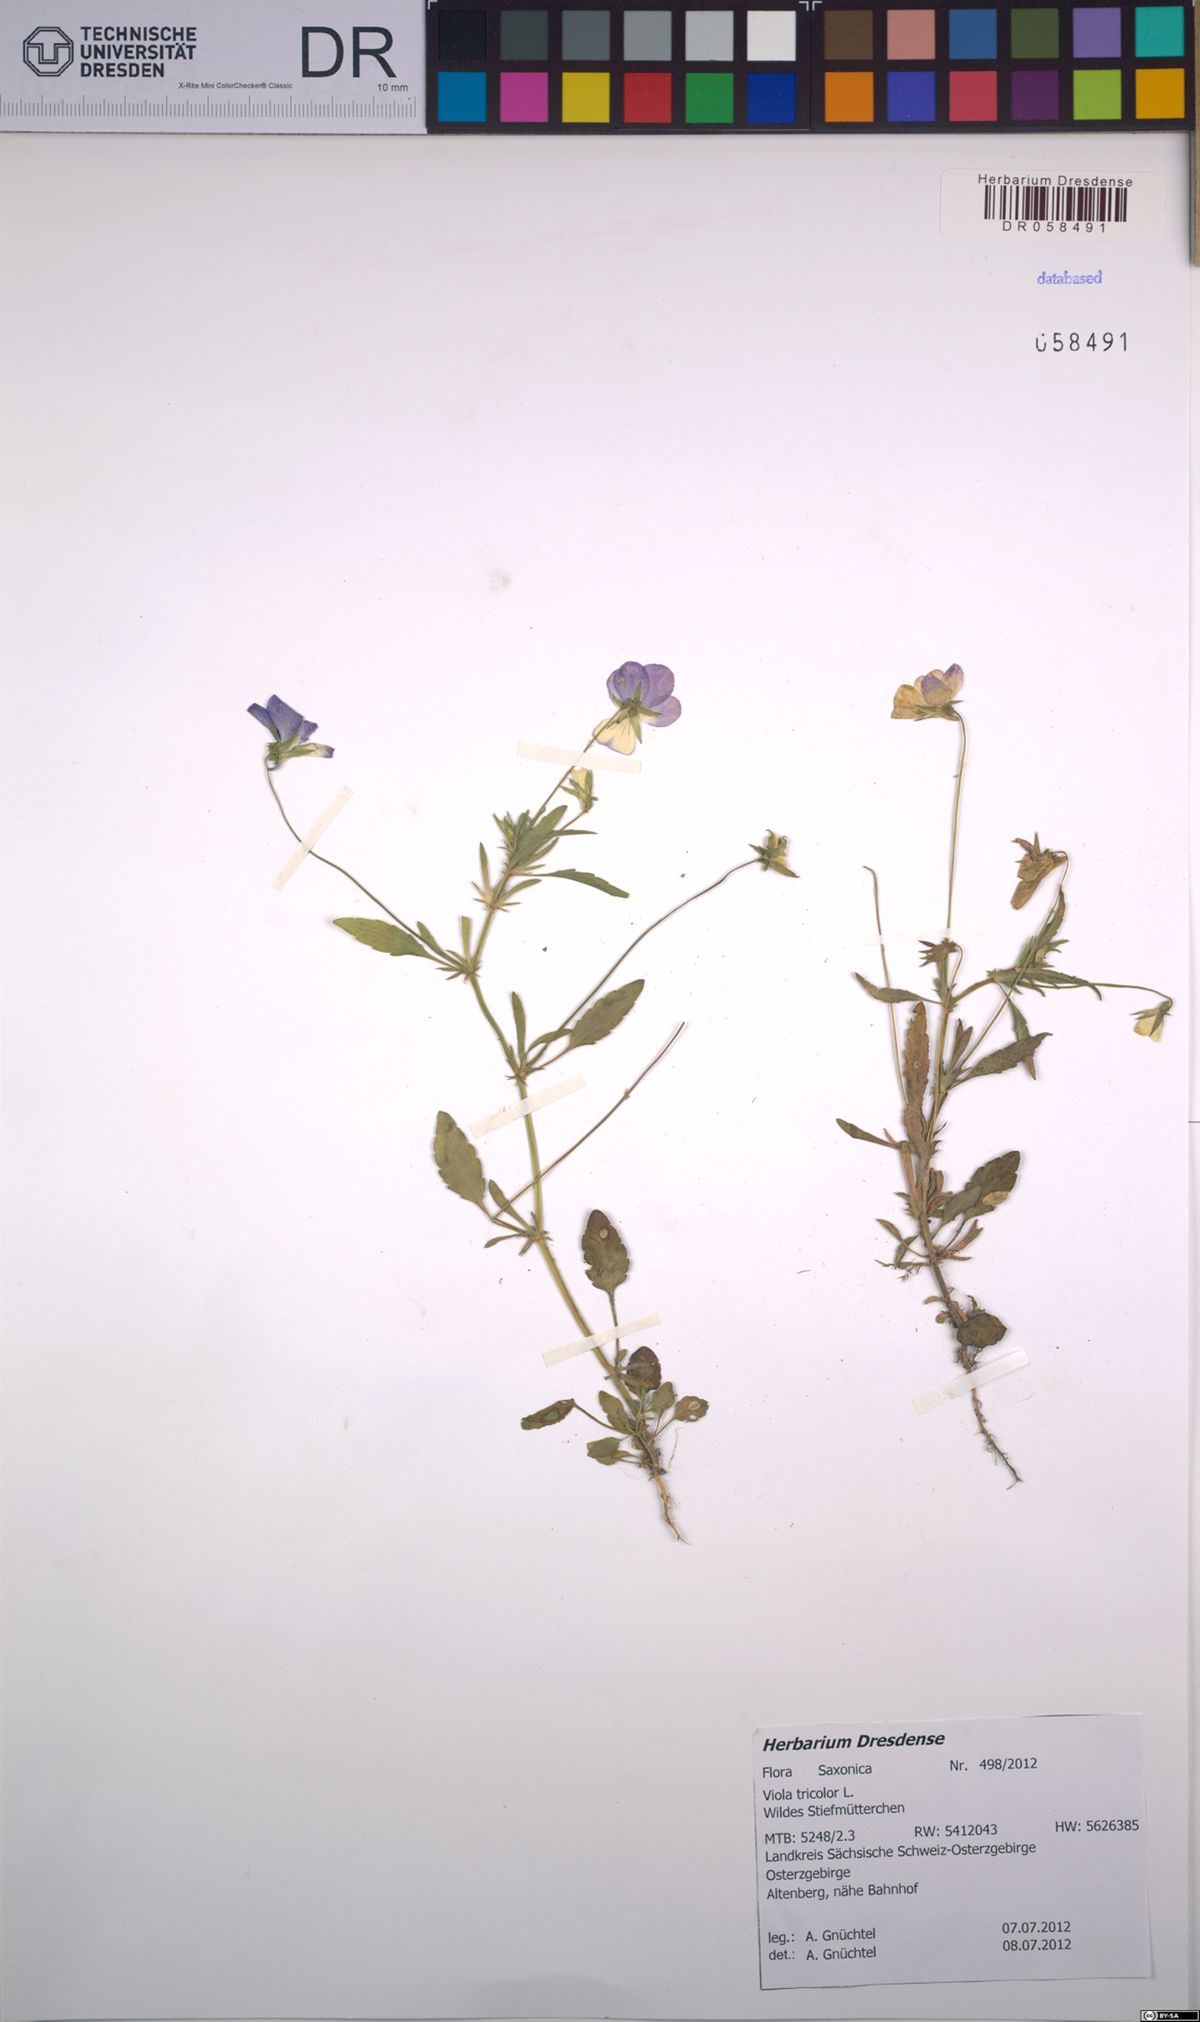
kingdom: Plantae
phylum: Tracheophyta
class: Magnoliopsida
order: Malpighiales
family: Violaceae
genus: Viola
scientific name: Viola tricolor
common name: Pansy
